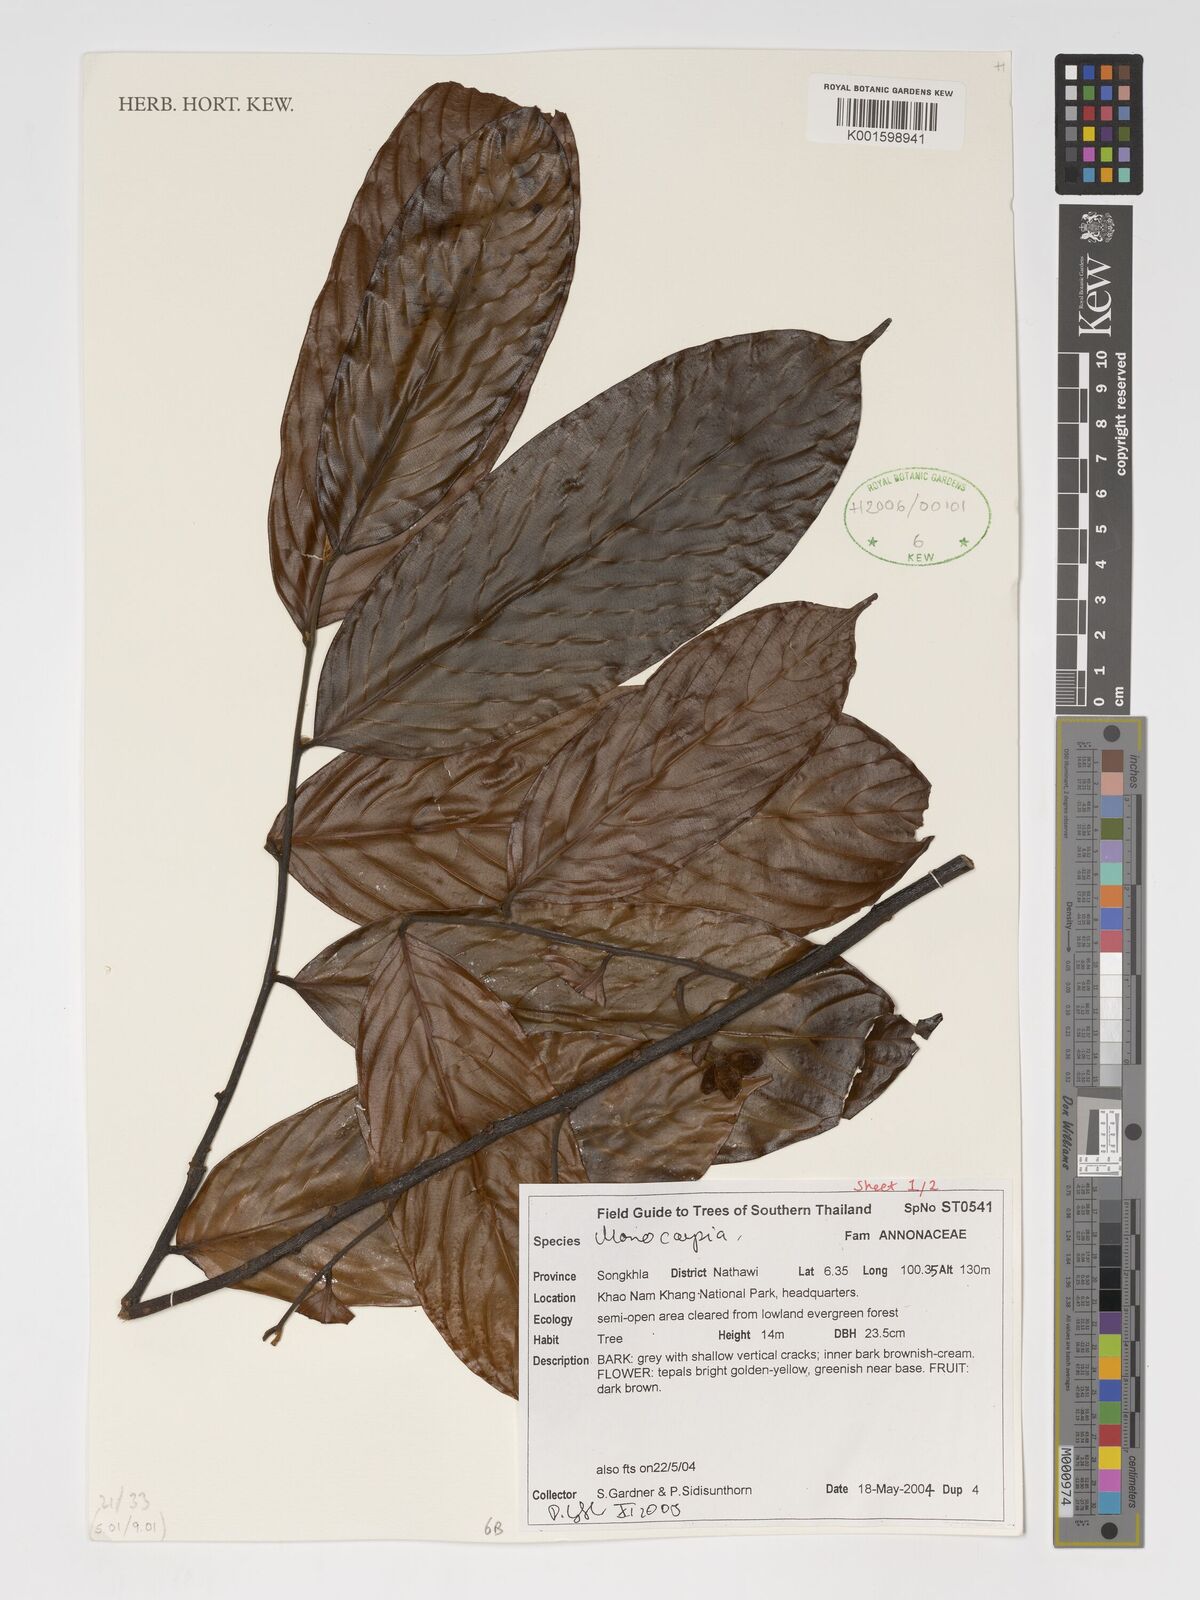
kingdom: Plantae
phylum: Tracheophyta
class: Magnoliopsida
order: Magnoliales
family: Annonaceae
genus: Monocarpia
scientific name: Monocarpia
